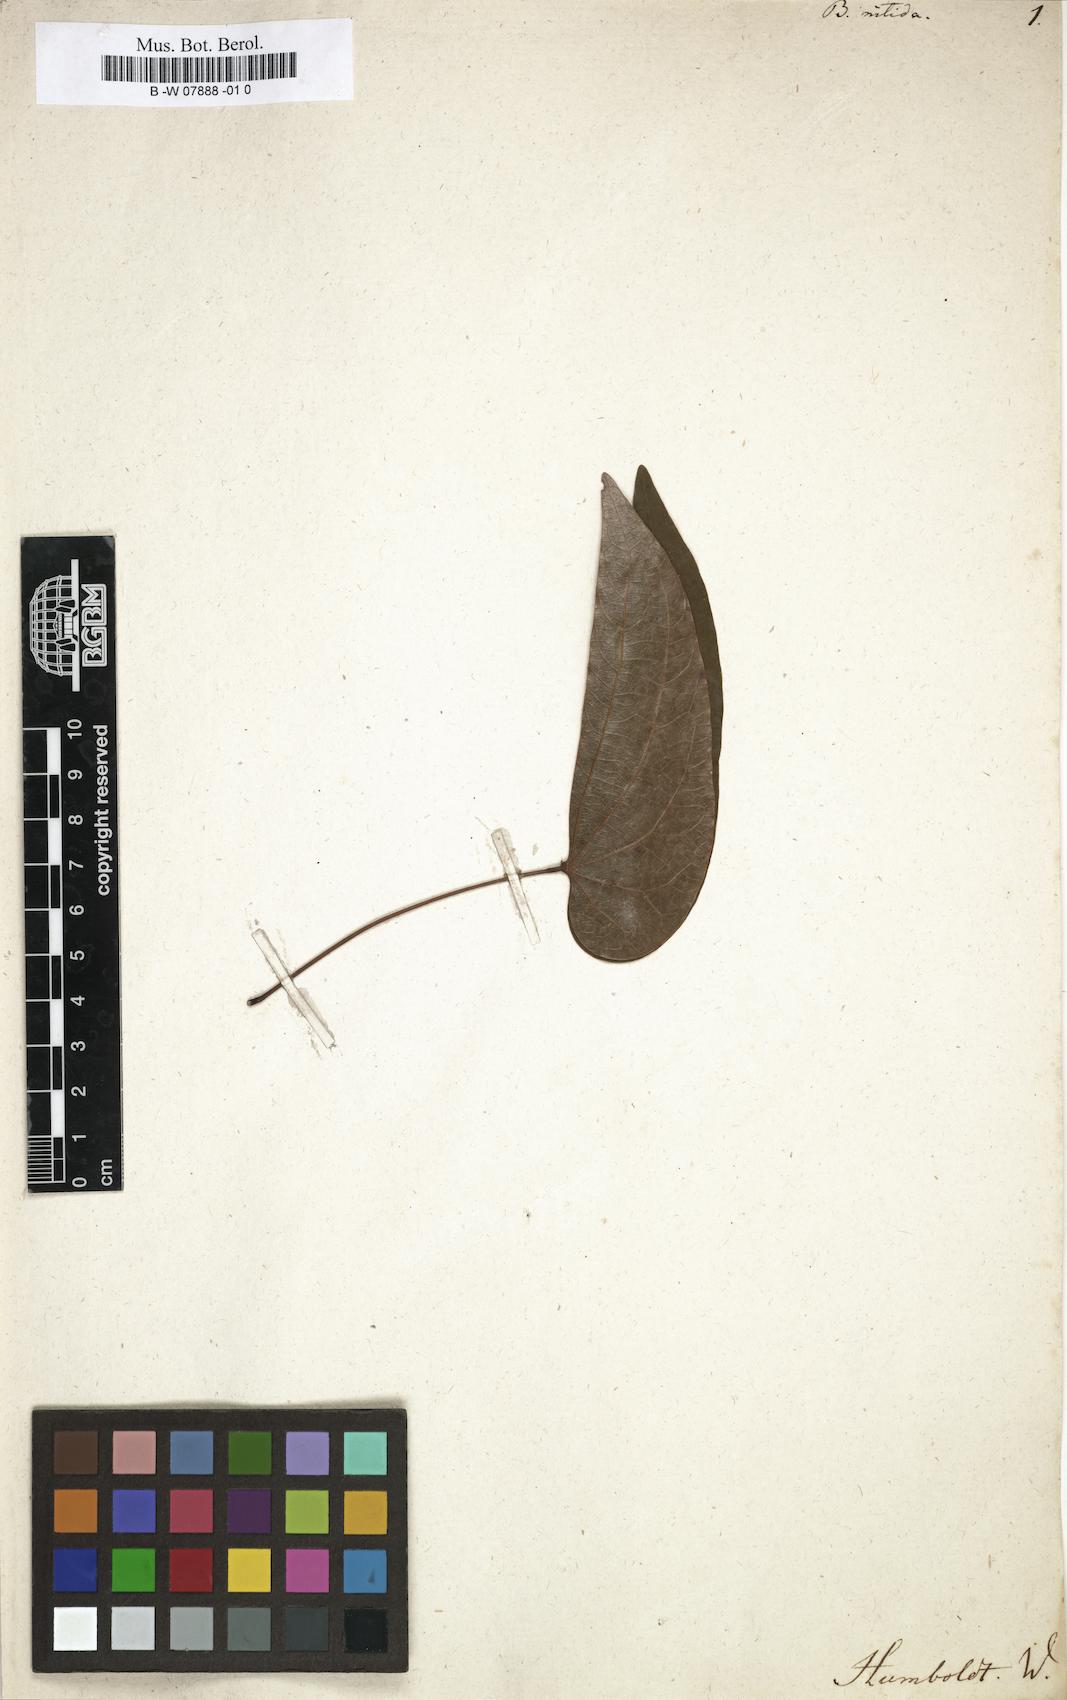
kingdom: Plantae
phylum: Tracheophyta
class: Magnoliopsida
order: Fabales
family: Fabaceae
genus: Bauhinia
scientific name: Bauhinia dubia
